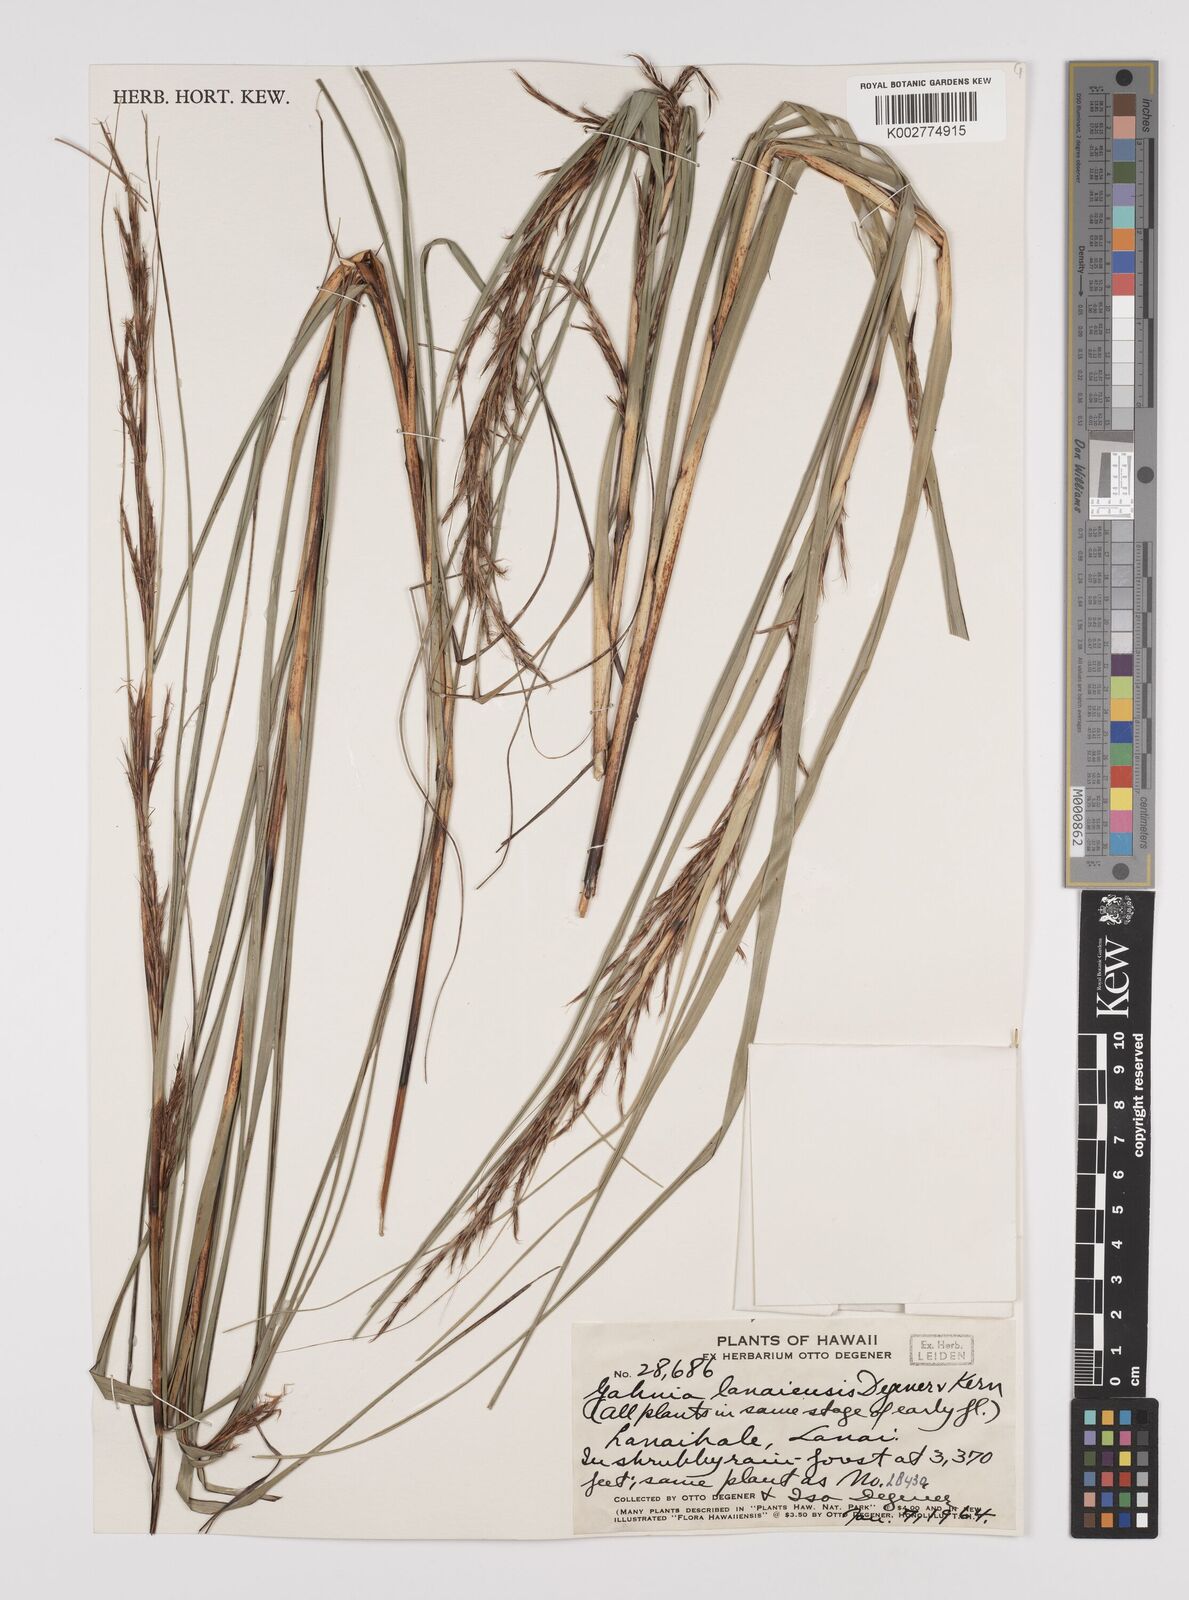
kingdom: Plantae
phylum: Tracheophyta
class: Liliopsida
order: Poales
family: Cyperaceae
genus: Gahnia
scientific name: Gahnia lacera
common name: Sawsedge
